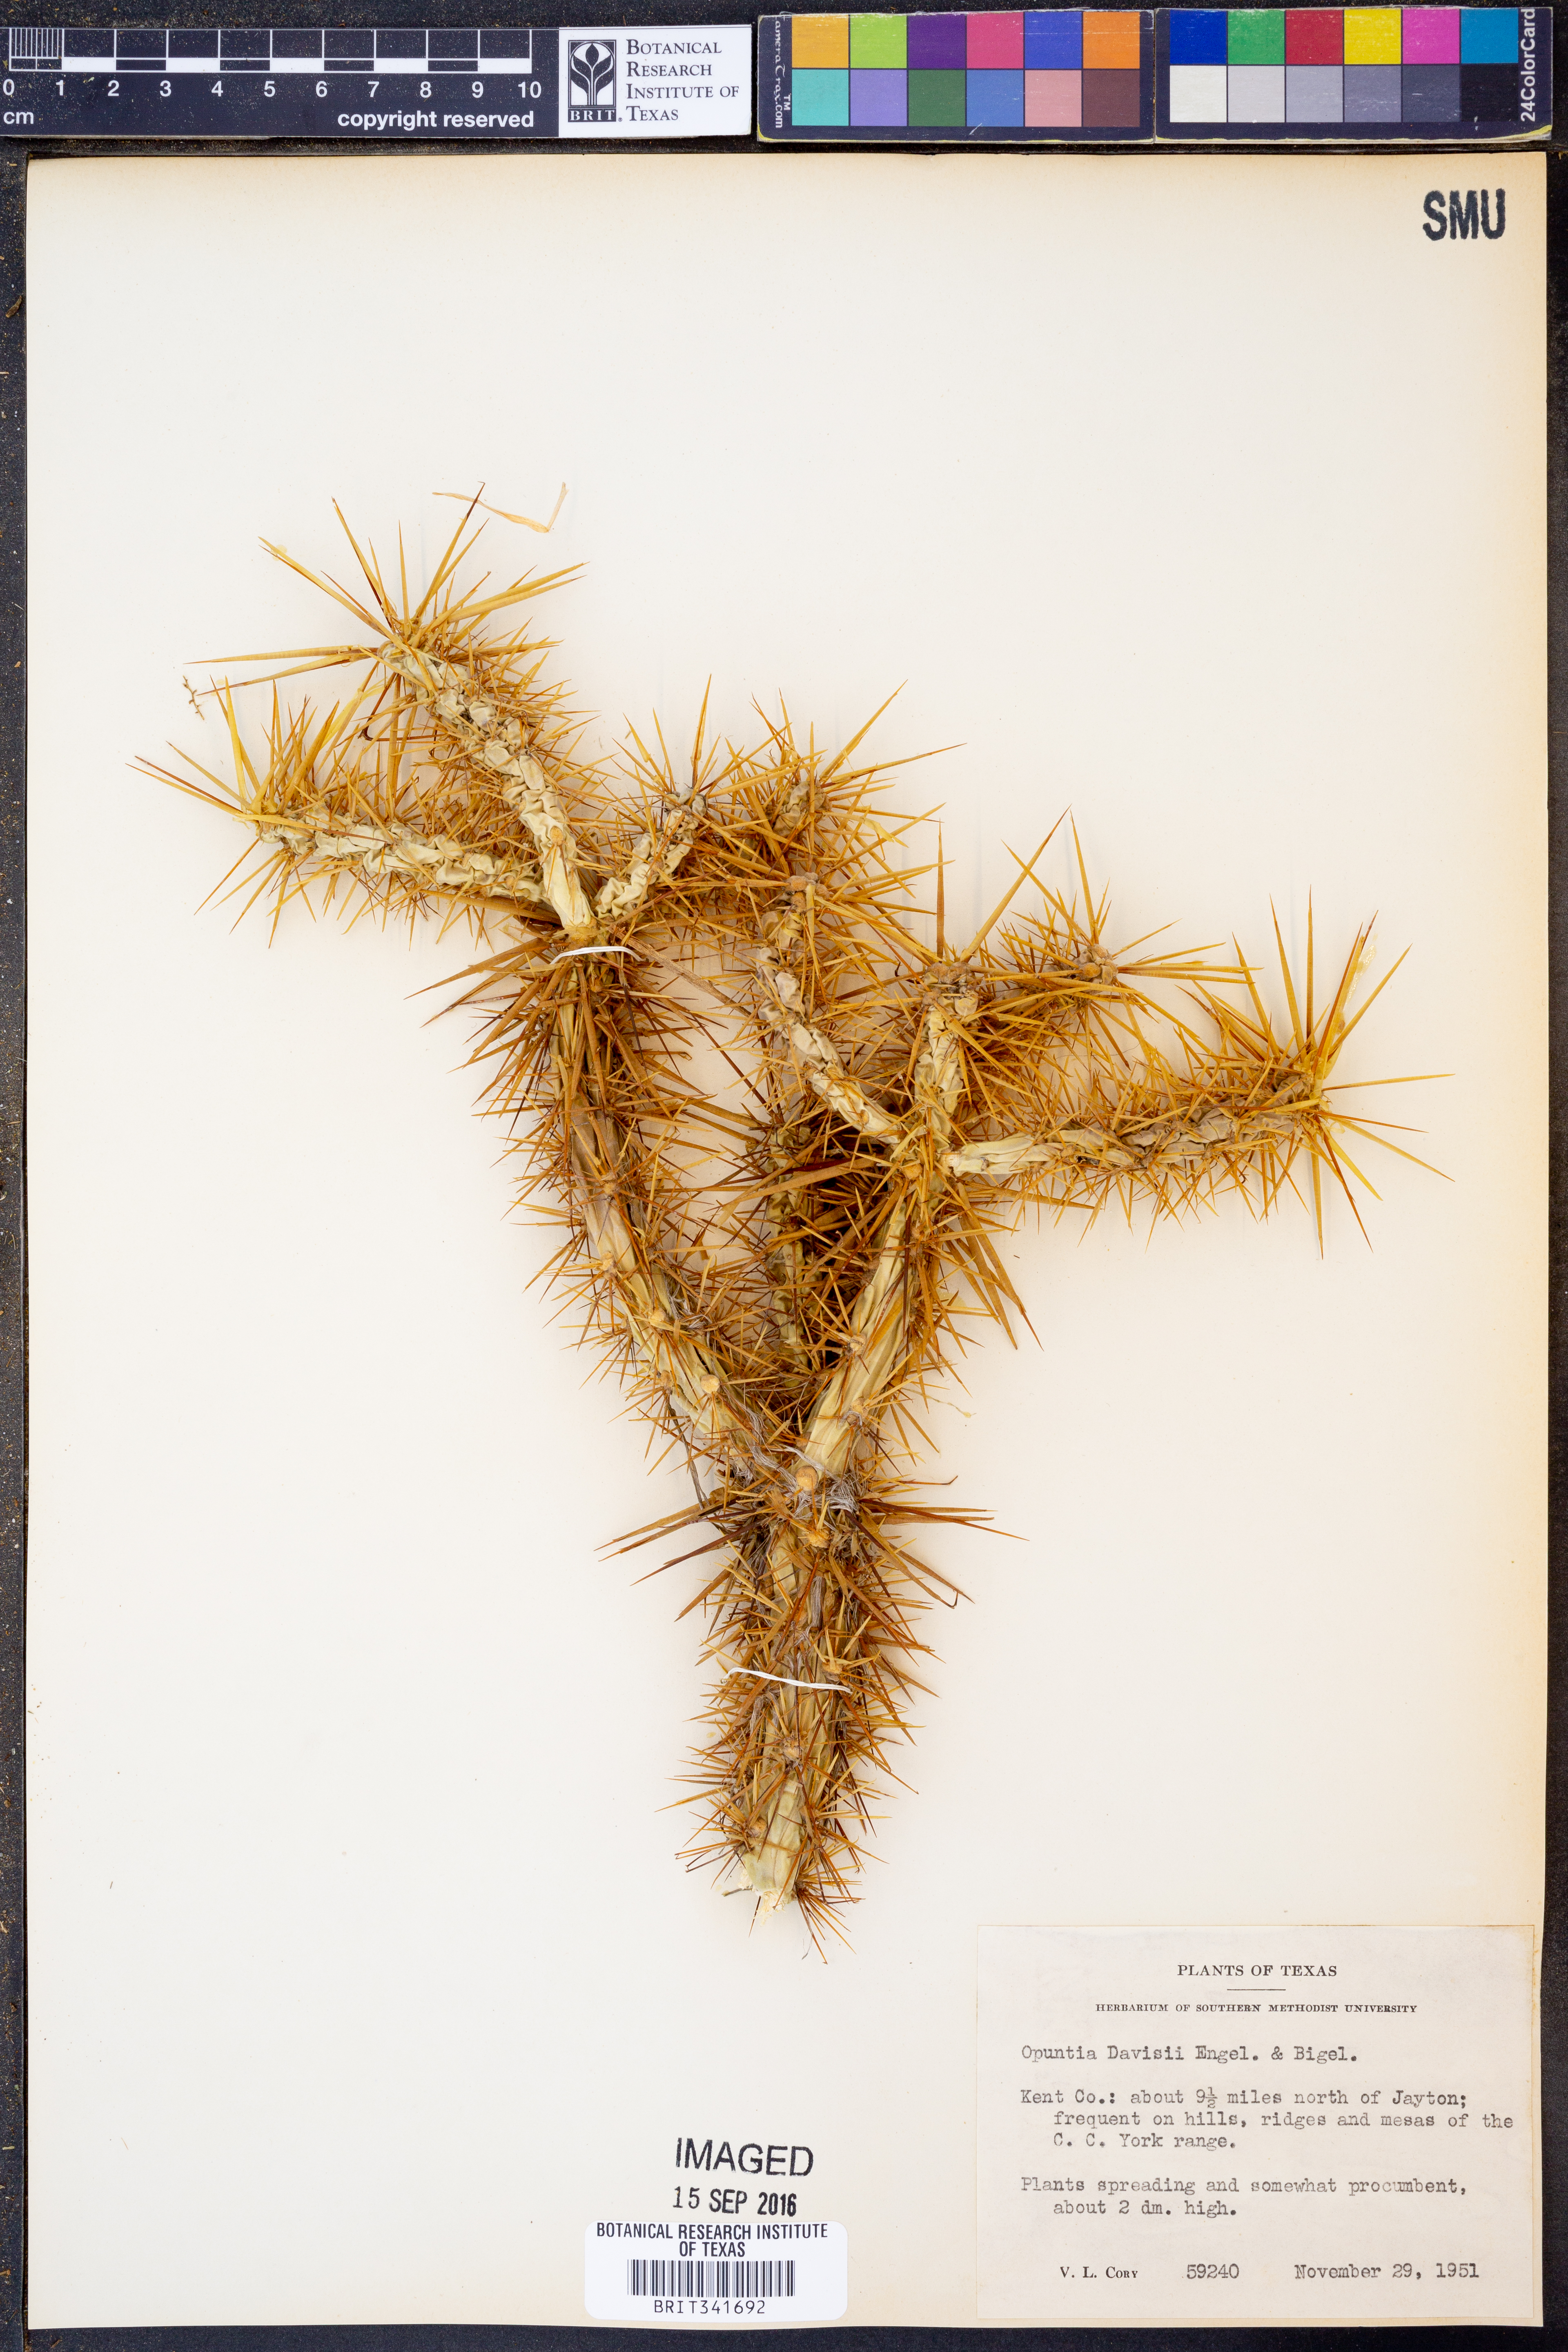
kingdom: Plantae
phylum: Tracheophyta
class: Magnoliopsida
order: Caryophyllales
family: Cactaceae
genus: Cylindropuntia
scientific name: Cylindropuntia davisii
